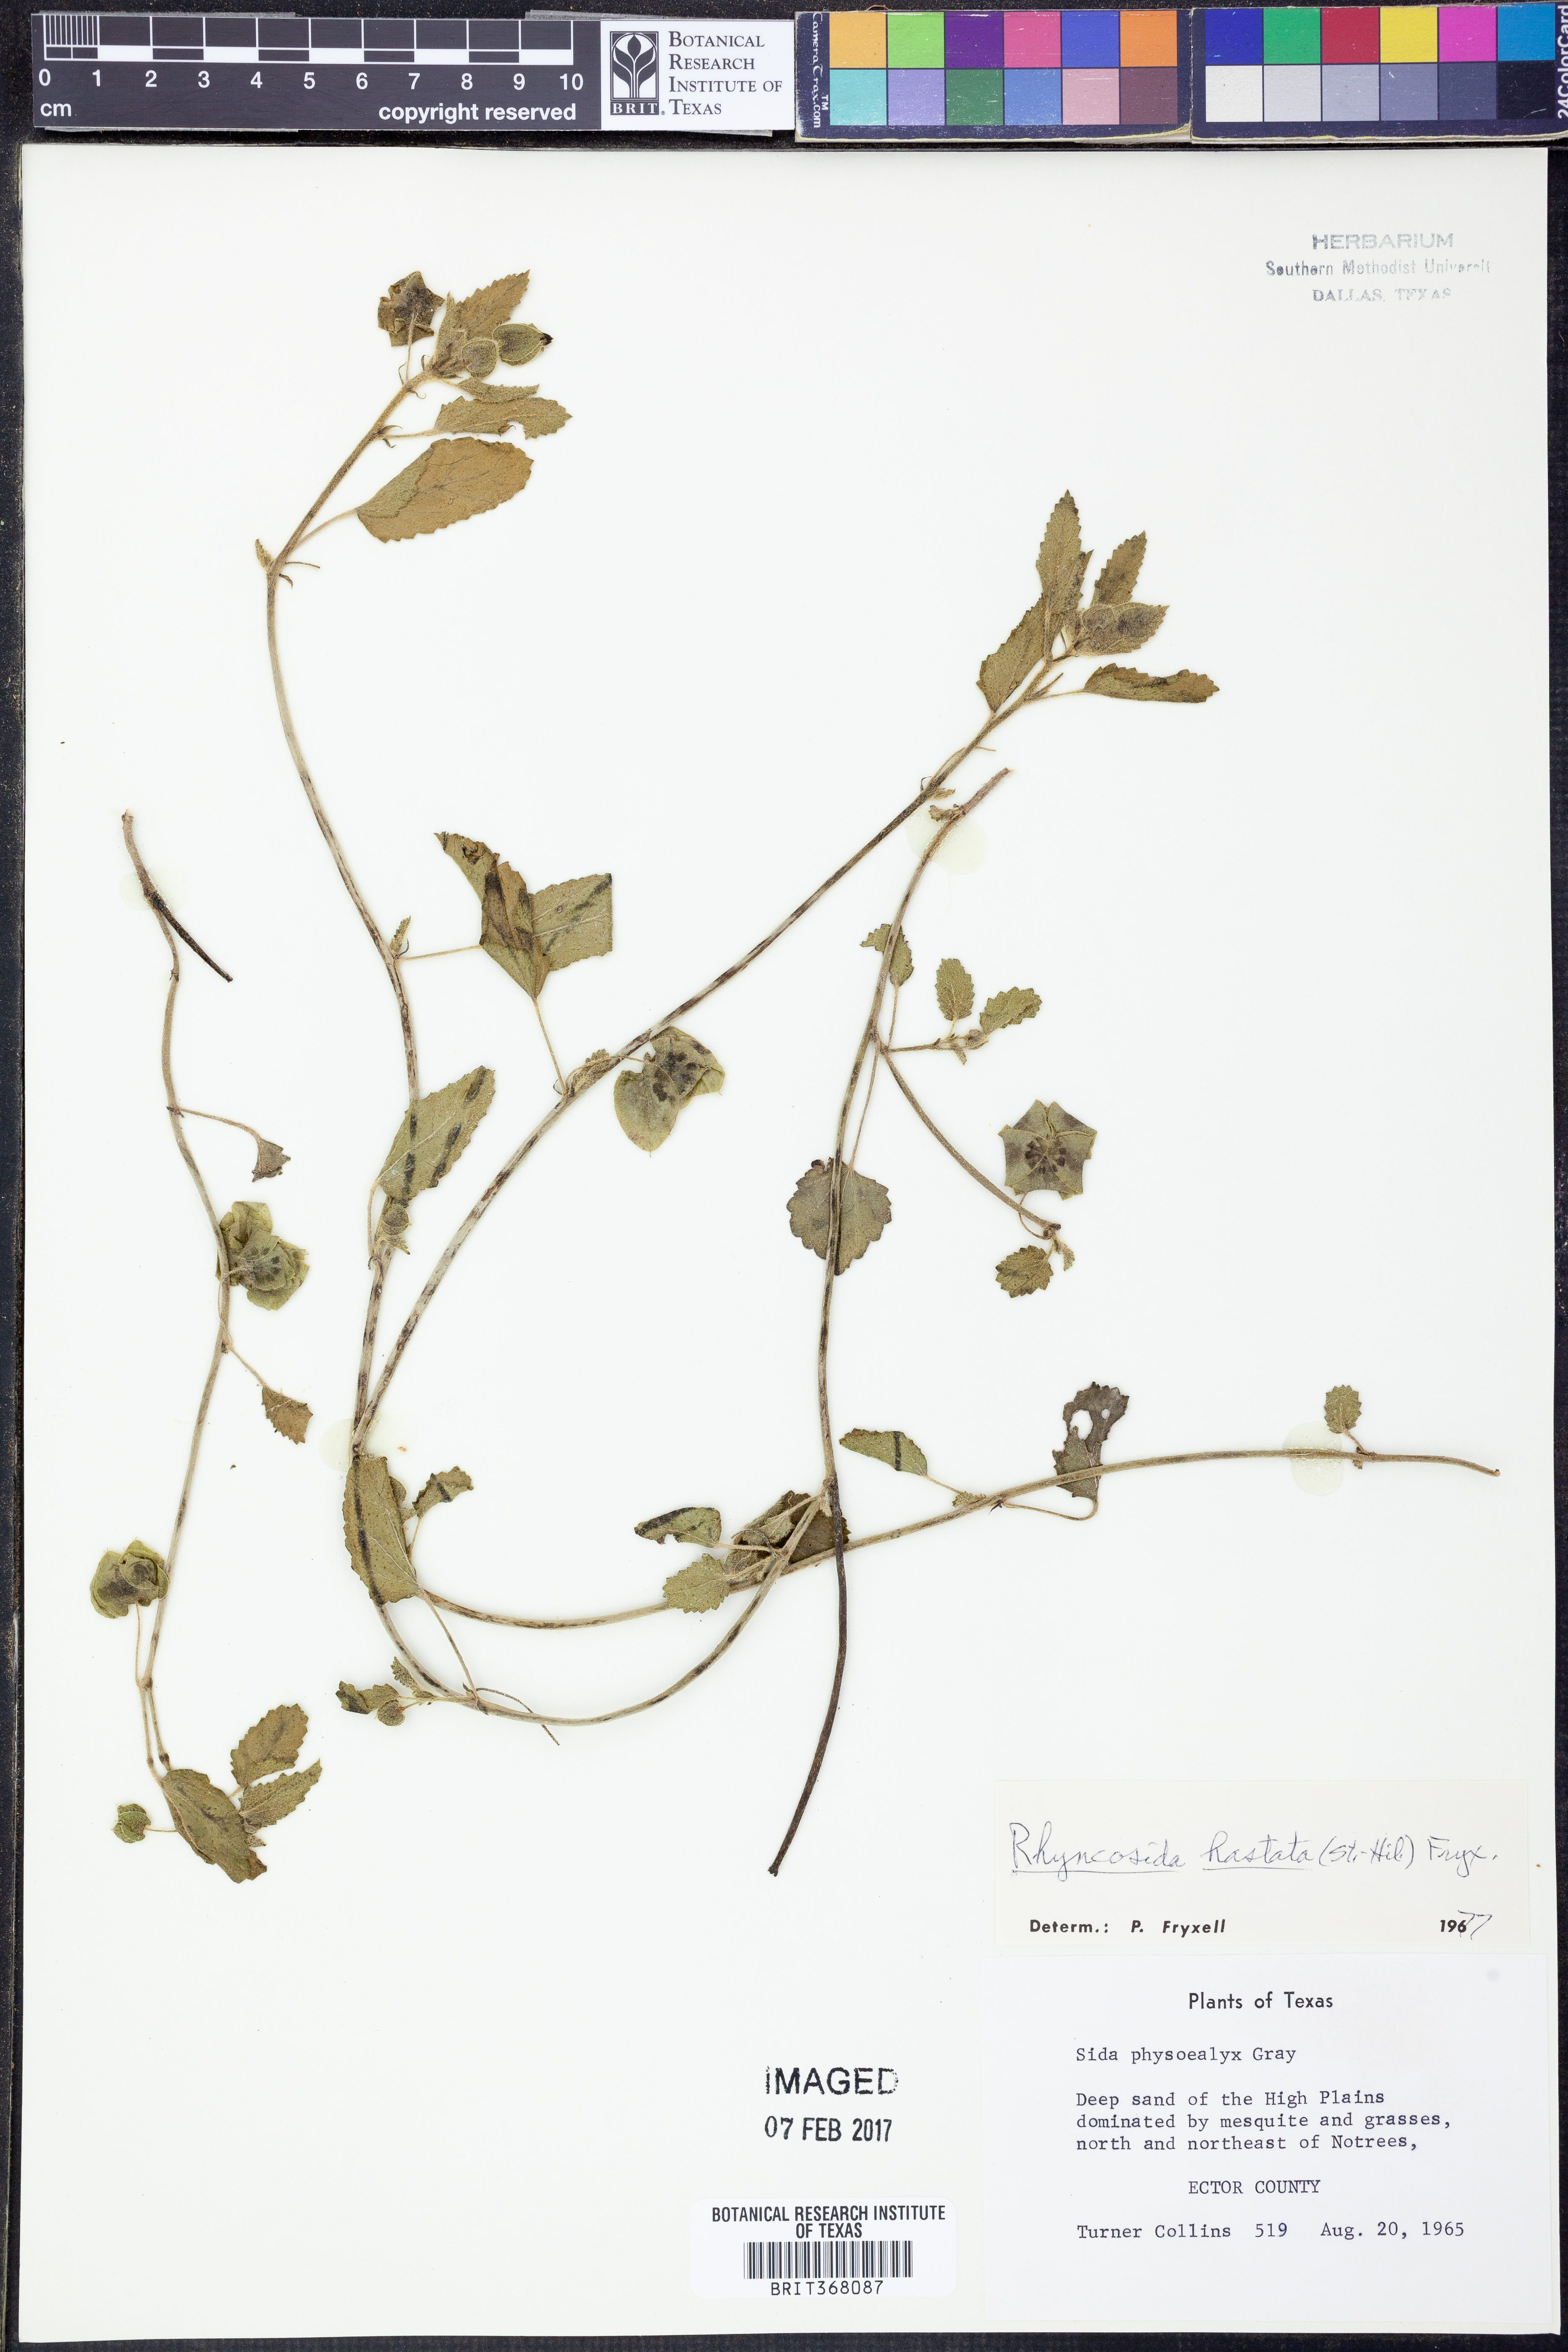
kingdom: Plantae
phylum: Tracheophyta
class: Magnoliopsida
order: Malvales
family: Malvaceae
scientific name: Malvaceae
